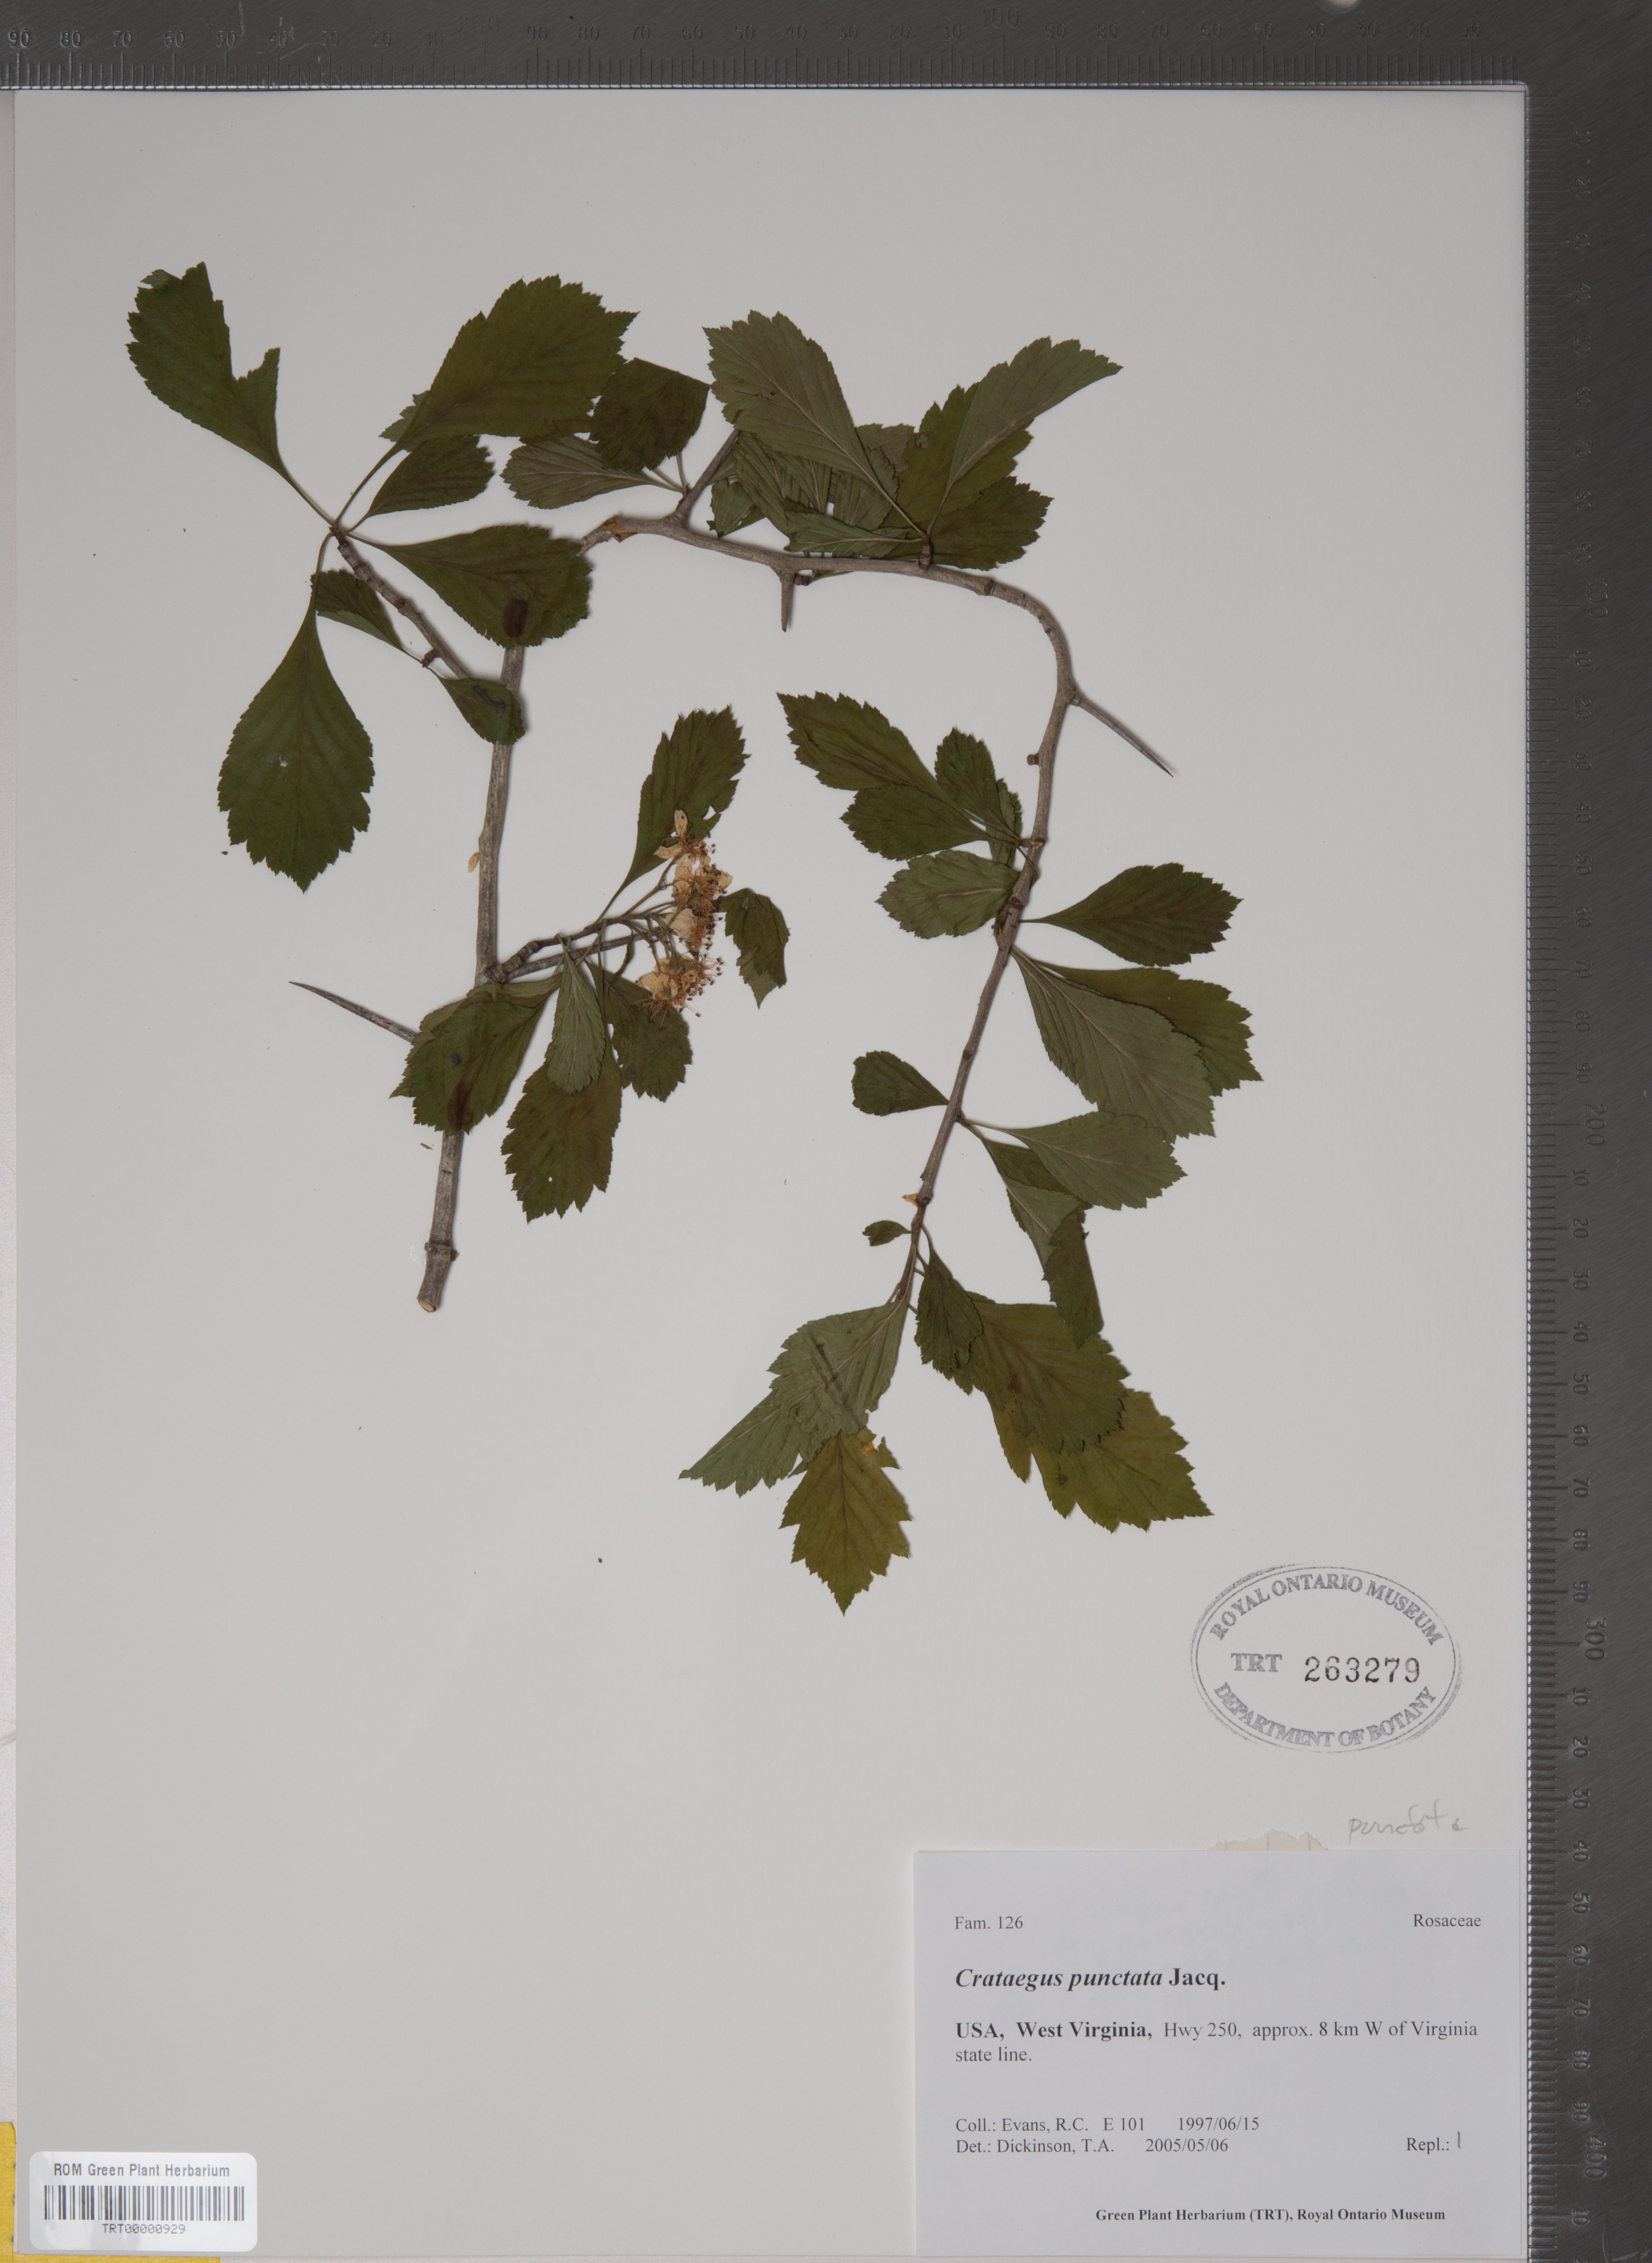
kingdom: Plantae
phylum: Tracheophyta
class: Magnoliopsida
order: Rosales
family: Rosaceae
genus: Crataegus
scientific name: Crataegus punctata
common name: Dotted hawthorn
